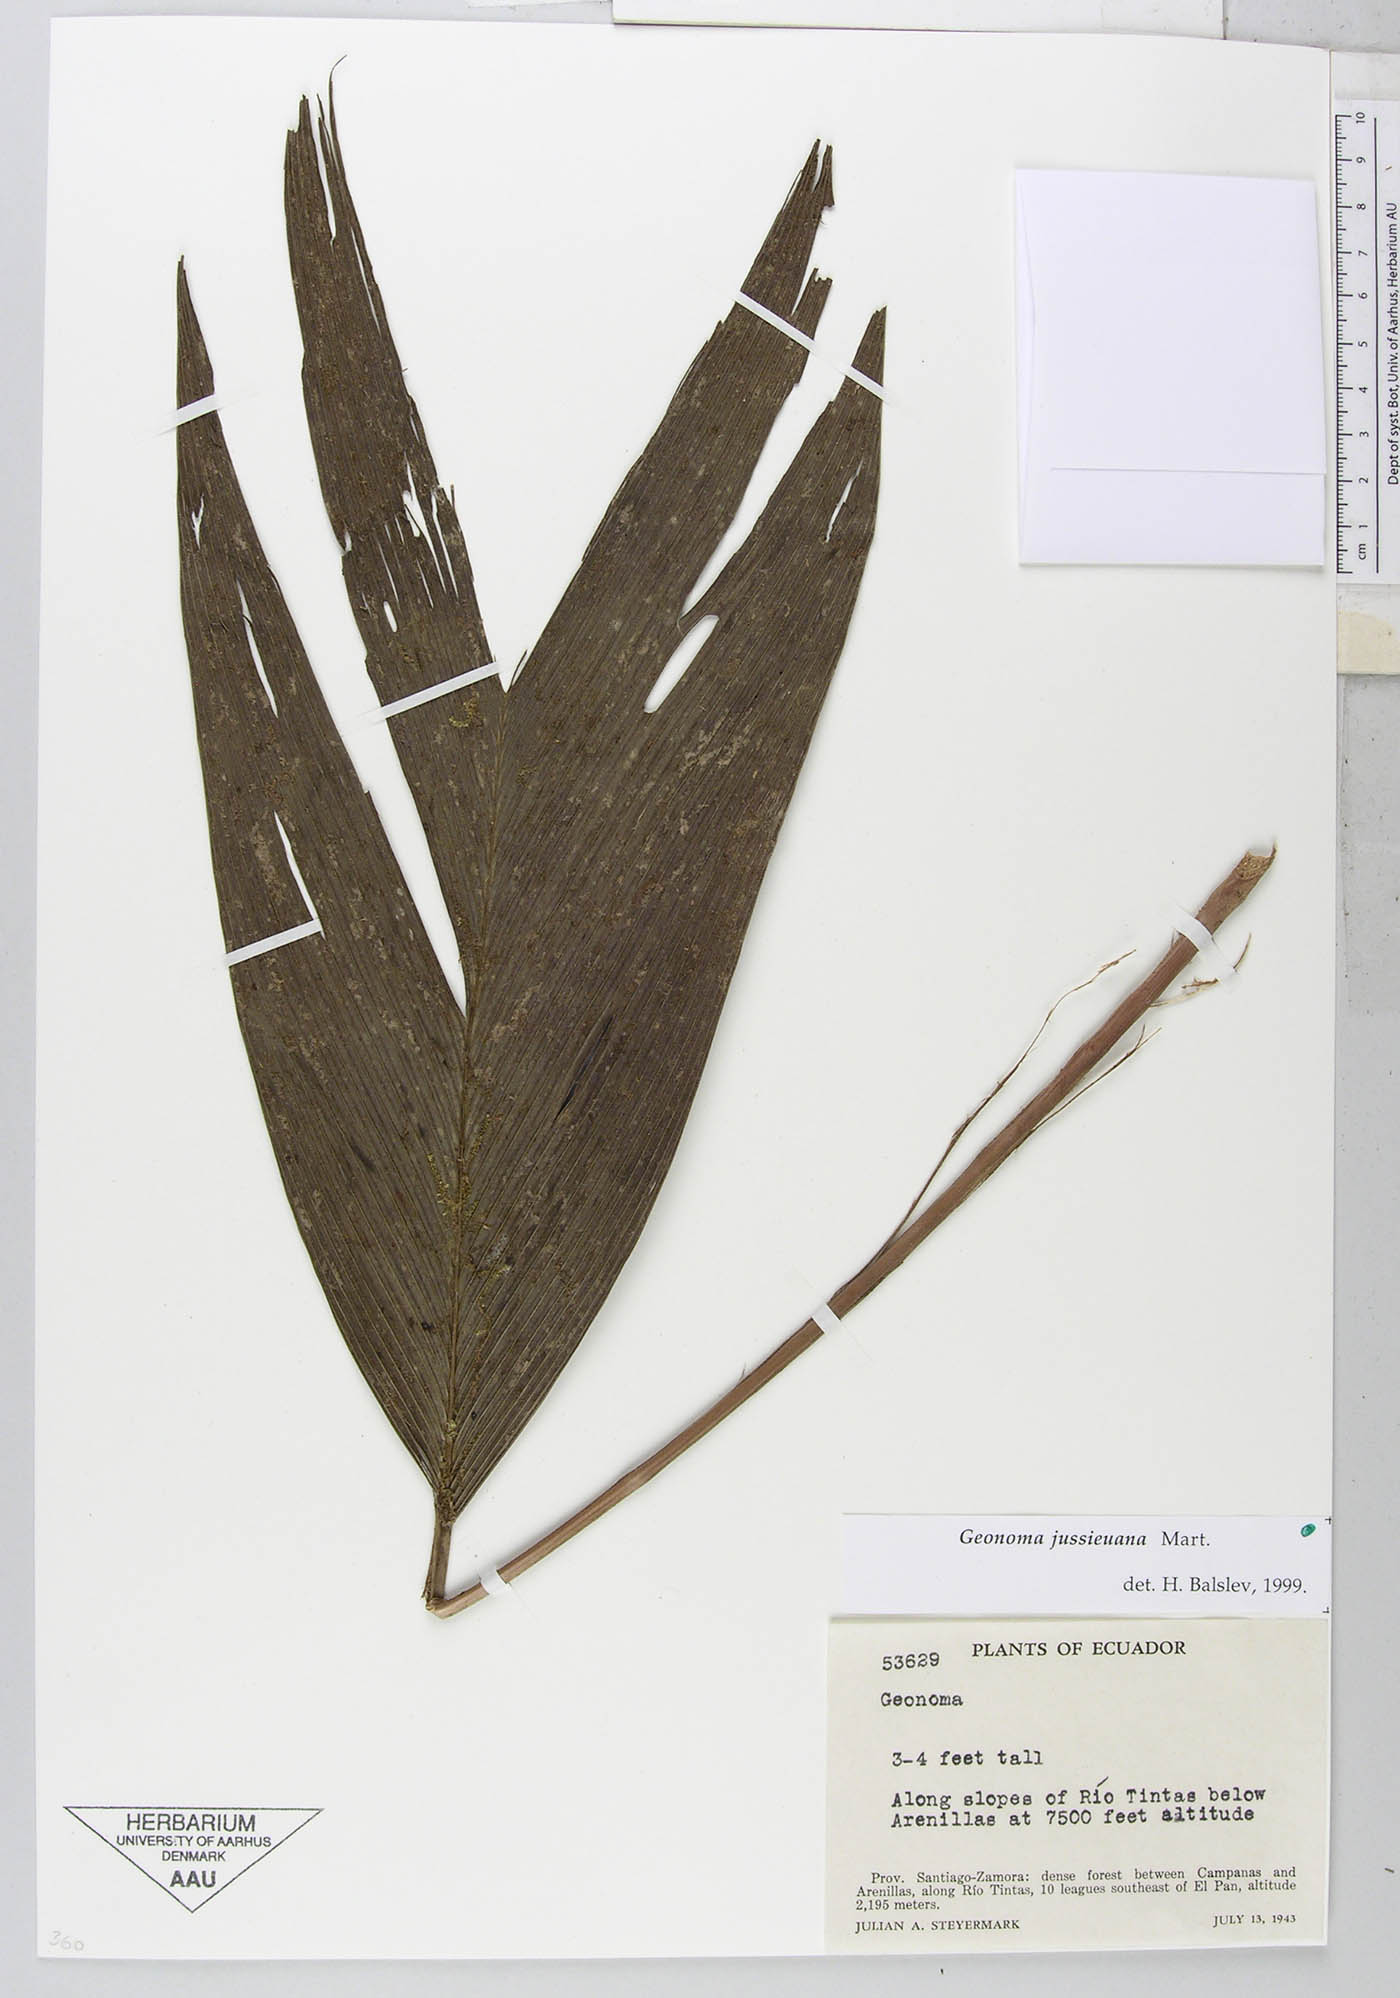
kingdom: Plantae
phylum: Tracheophyta
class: Liliopsida
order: Arecales
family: Arecaceae
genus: Geonoma
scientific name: Geonoma lehmannii
